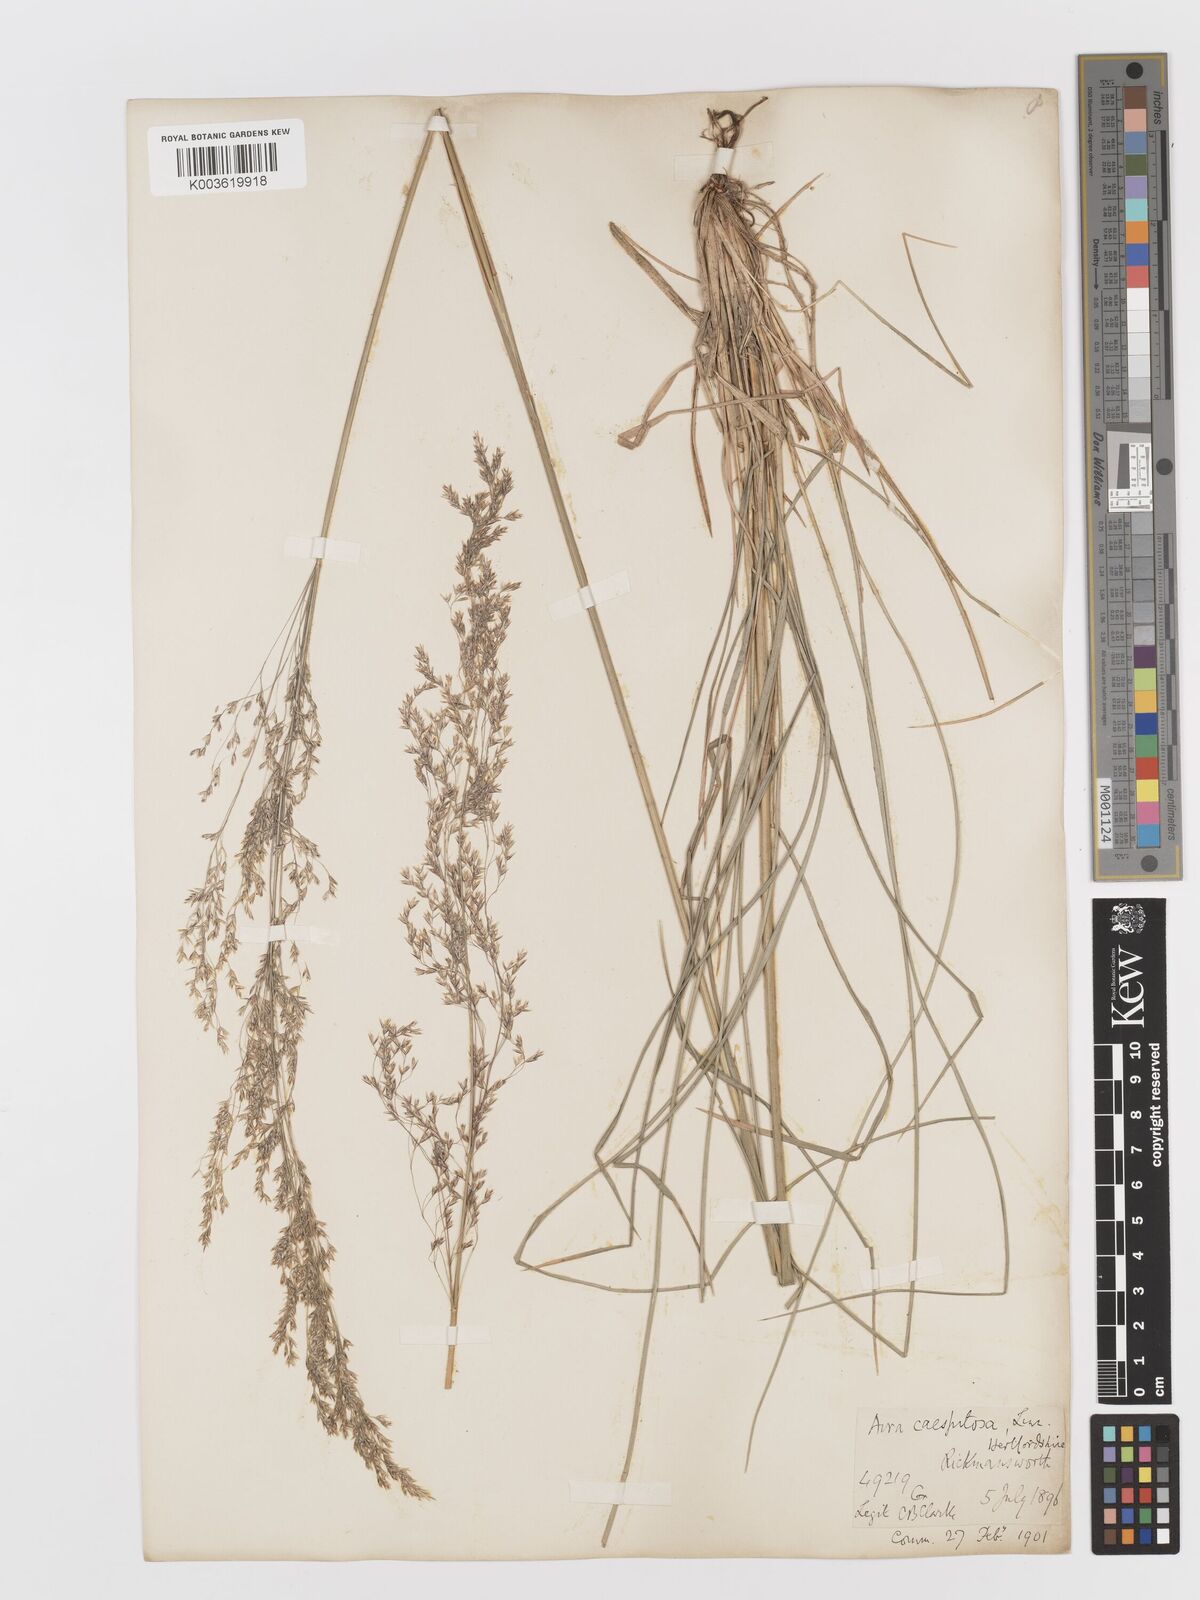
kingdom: Plantae
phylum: Tracheophyta
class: Liliopsida
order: Poales
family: Poaceae
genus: Deschampsia
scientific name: Deschampsia cespitosa
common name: Tufted hair-grass
